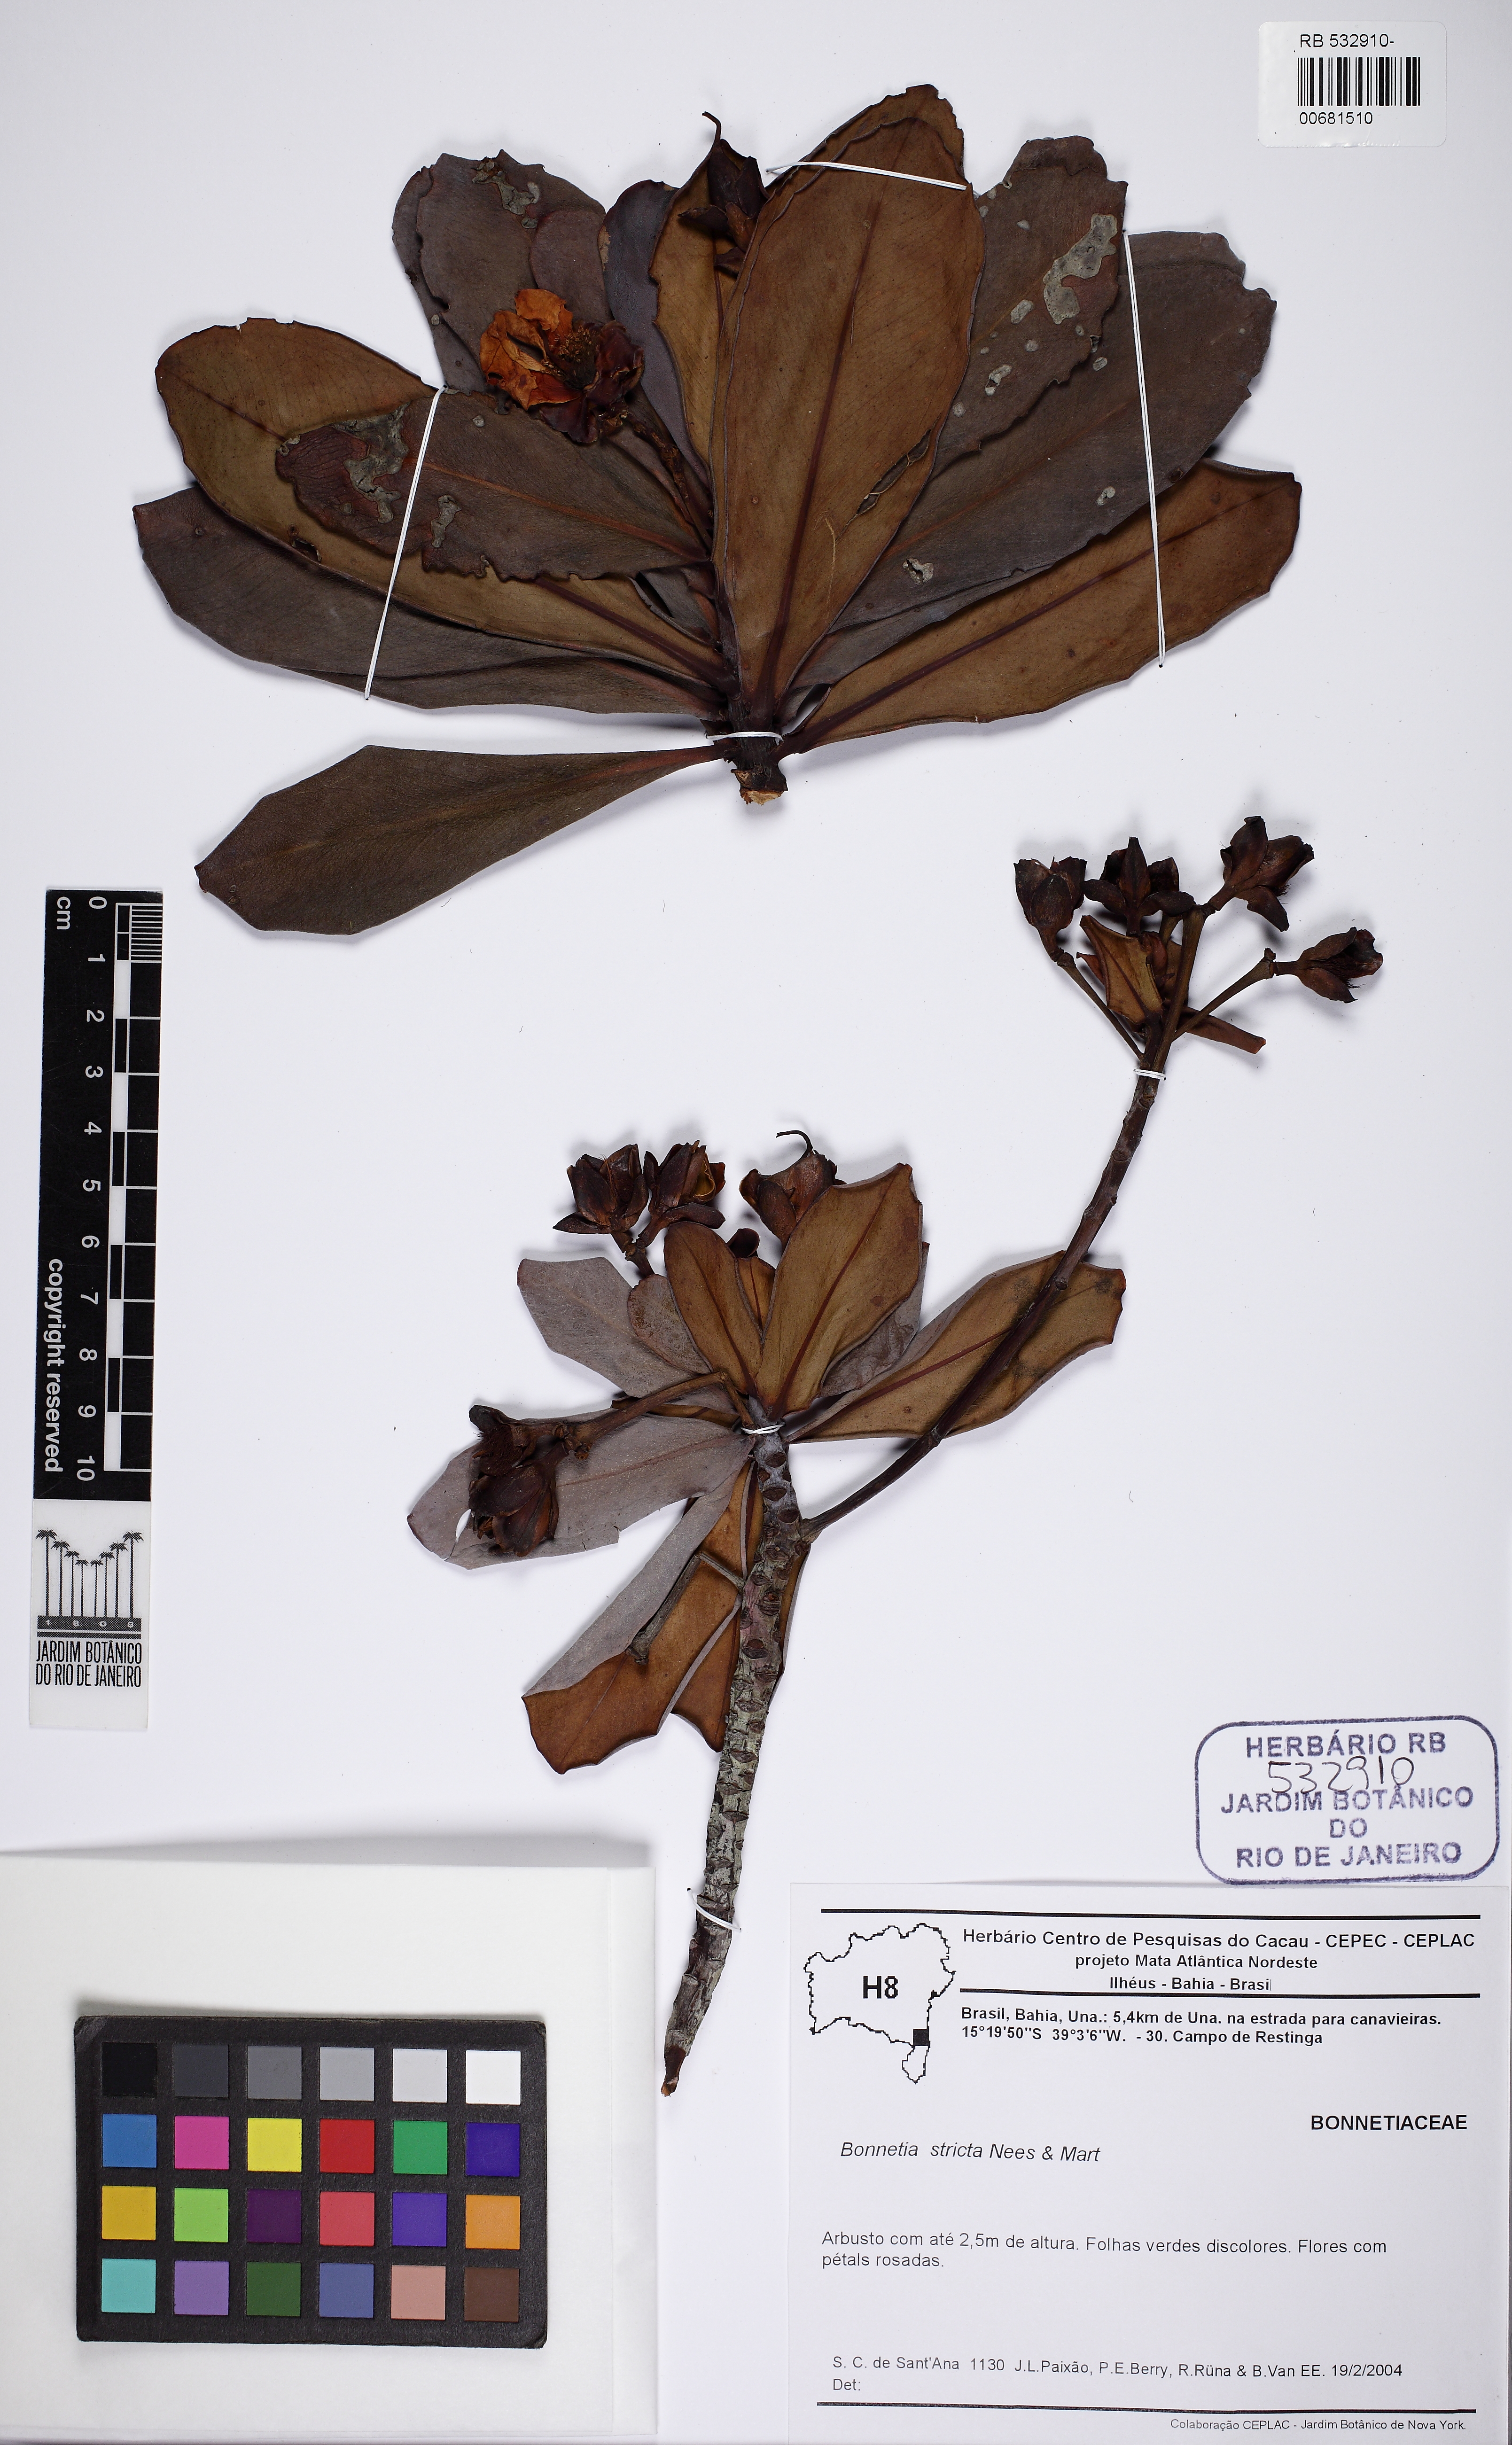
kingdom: Plantae
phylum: Tracheophyta
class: Magnoliopsida
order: Malpighiales
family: Bonnetiaceae
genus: Bonnetia
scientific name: Bonnetia stricta
